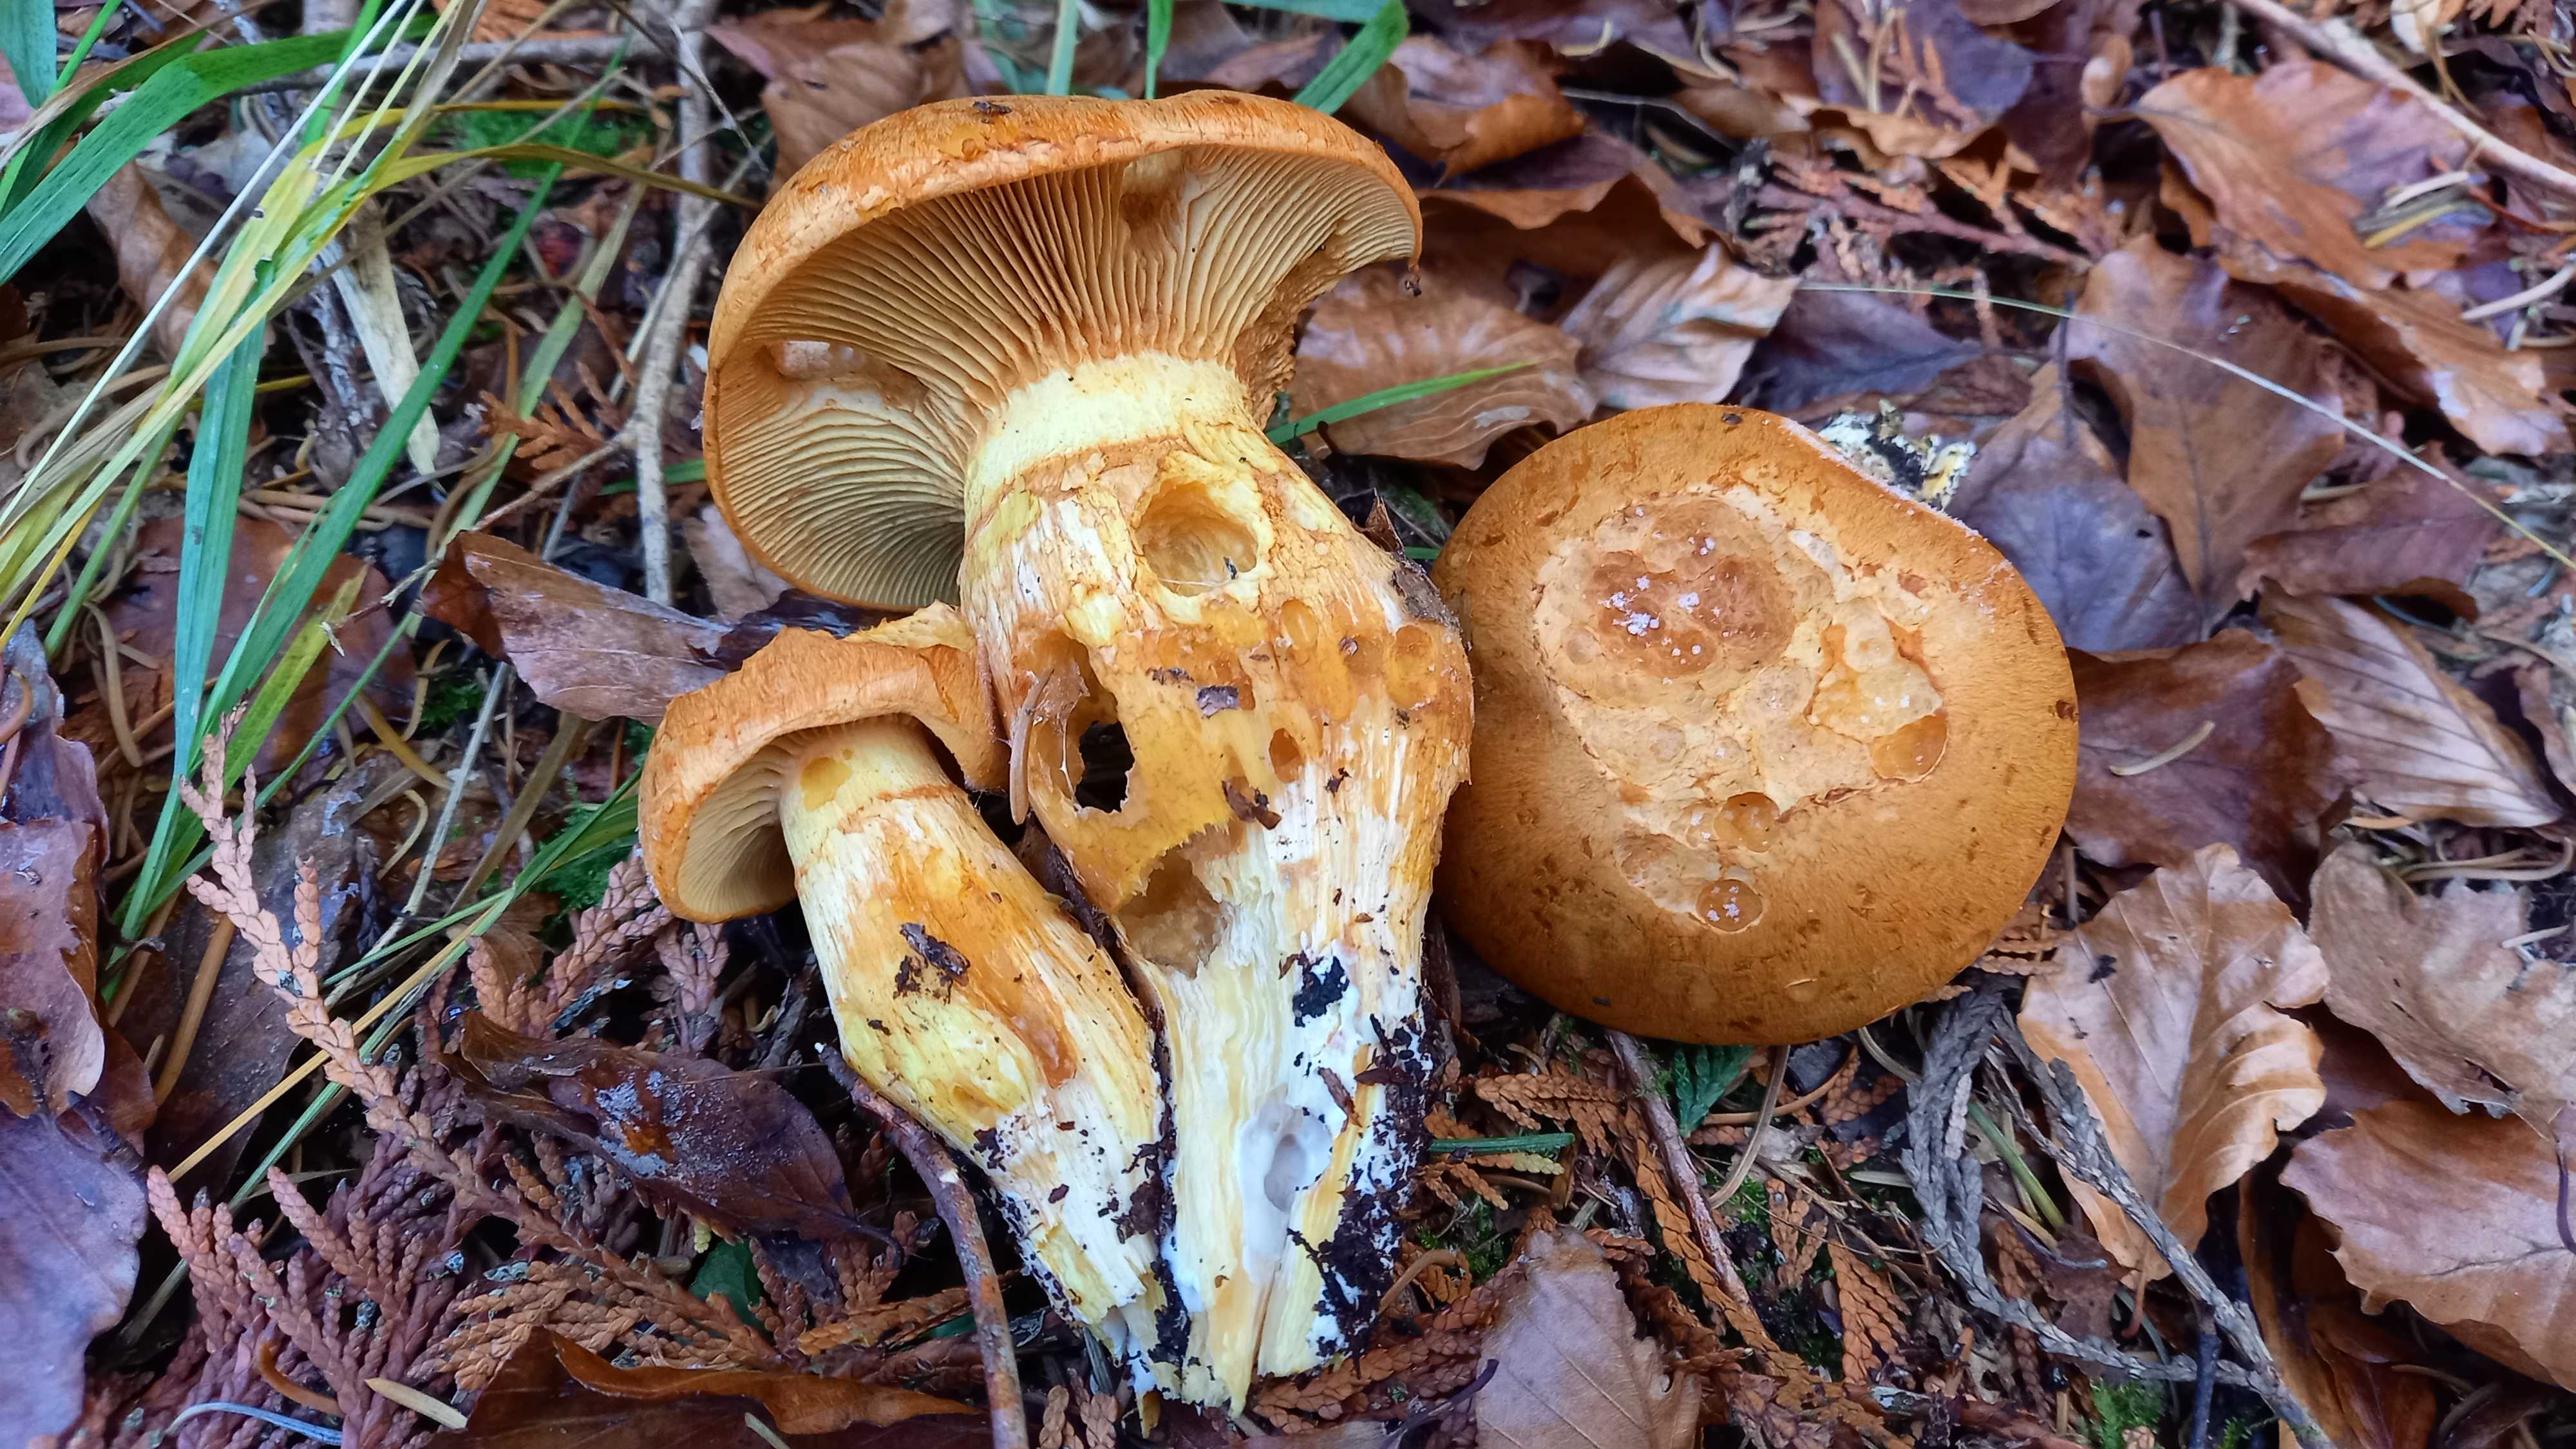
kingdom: Fungi
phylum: Basidiomycota
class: Agaricomycetes
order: Agaricales
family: Hymenogastraceae
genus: Gymnopilus
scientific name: Gymnopilus spectabilis
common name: fibret flammehat
